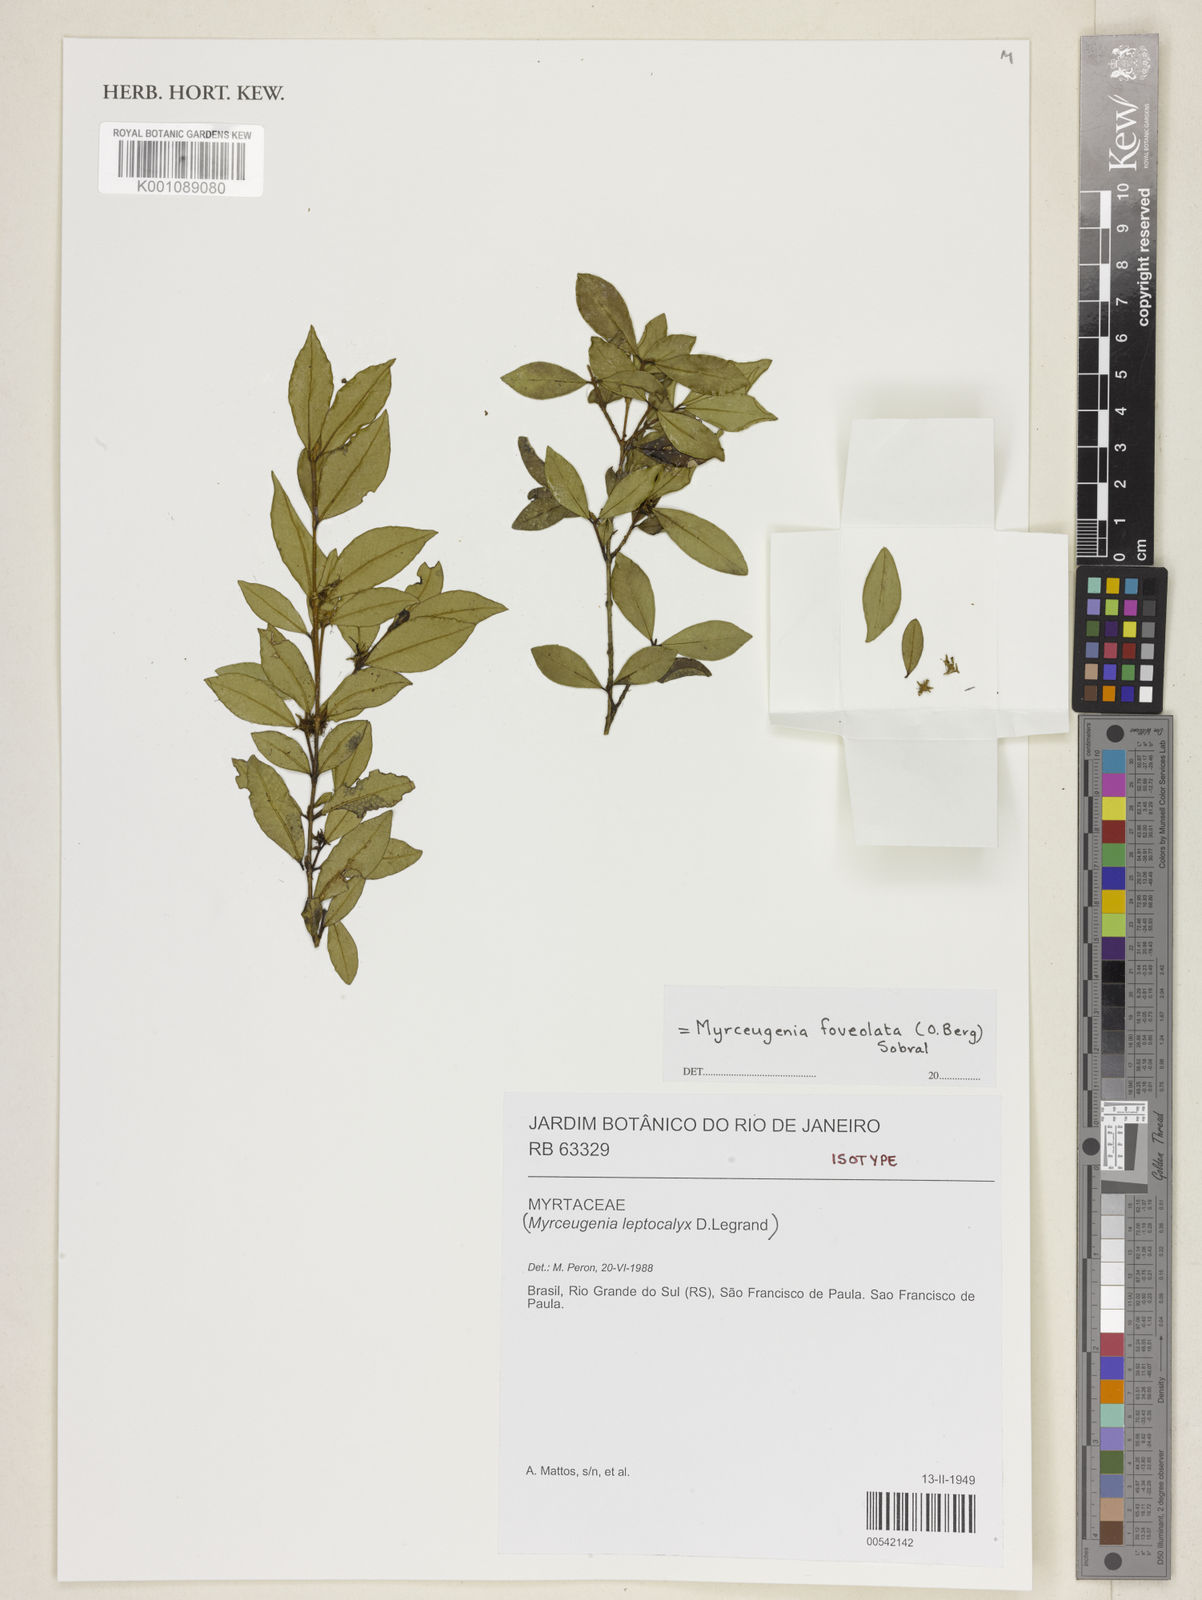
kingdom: Plantae
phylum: Tracheophyta
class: Magnoliopsida
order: Myrtales
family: Myrtaceae
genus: Myrceugenia
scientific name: Myrceugenia foveolata
